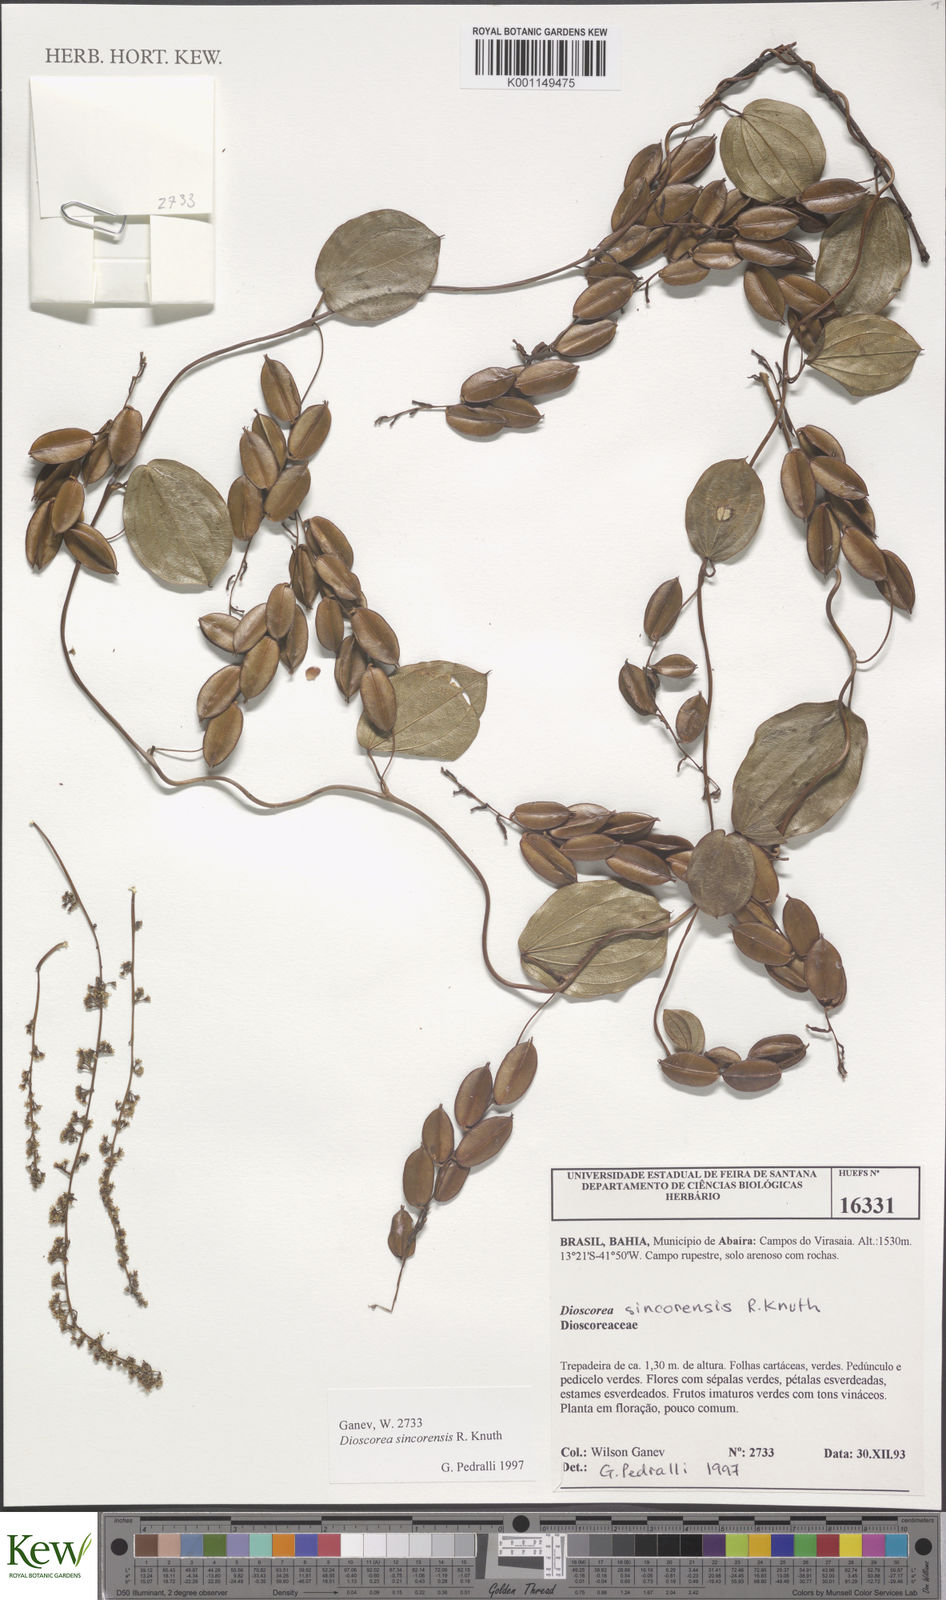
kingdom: Plantae
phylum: Tracheophyta
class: Liliopsida
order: Dioscoreales
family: Dioscoreaceae
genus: Dioscorea
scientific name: Dioscorea sincorensis
